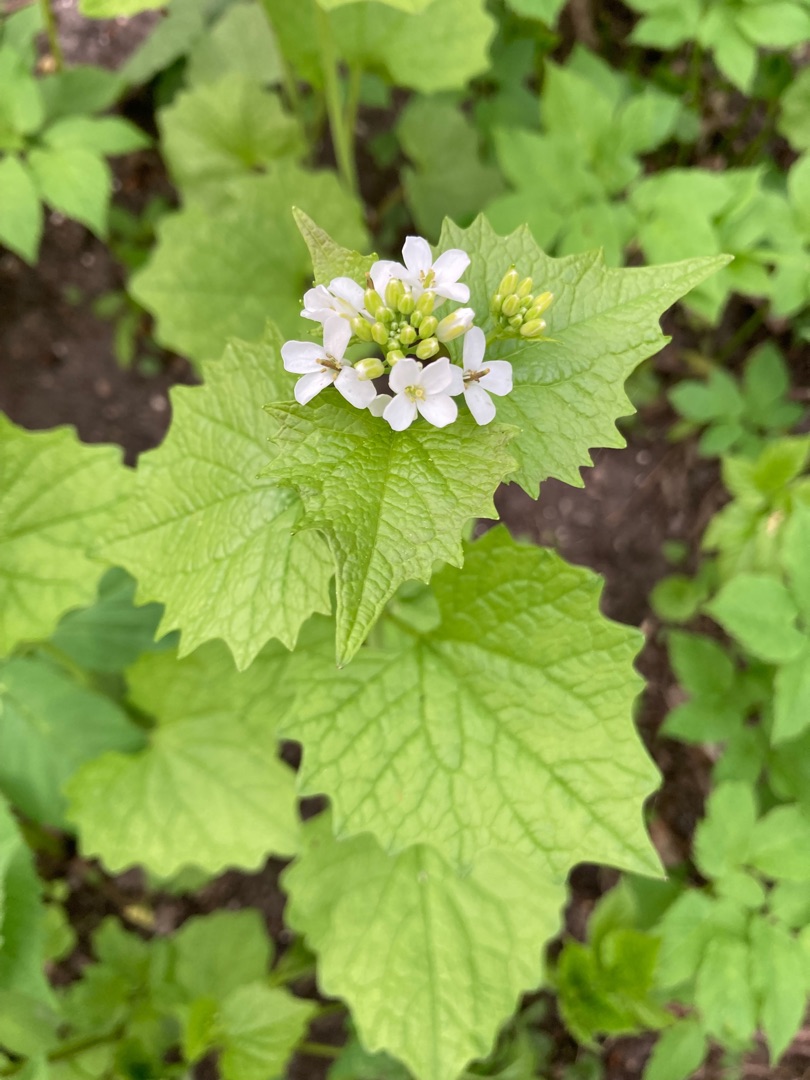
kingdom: Plantae
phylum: Tracheophyta
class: Magnoliopsida
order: Brassicales
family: Brassicaceae
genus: Alliaria
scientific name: Alliaria petiolata
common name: Løgkarse
